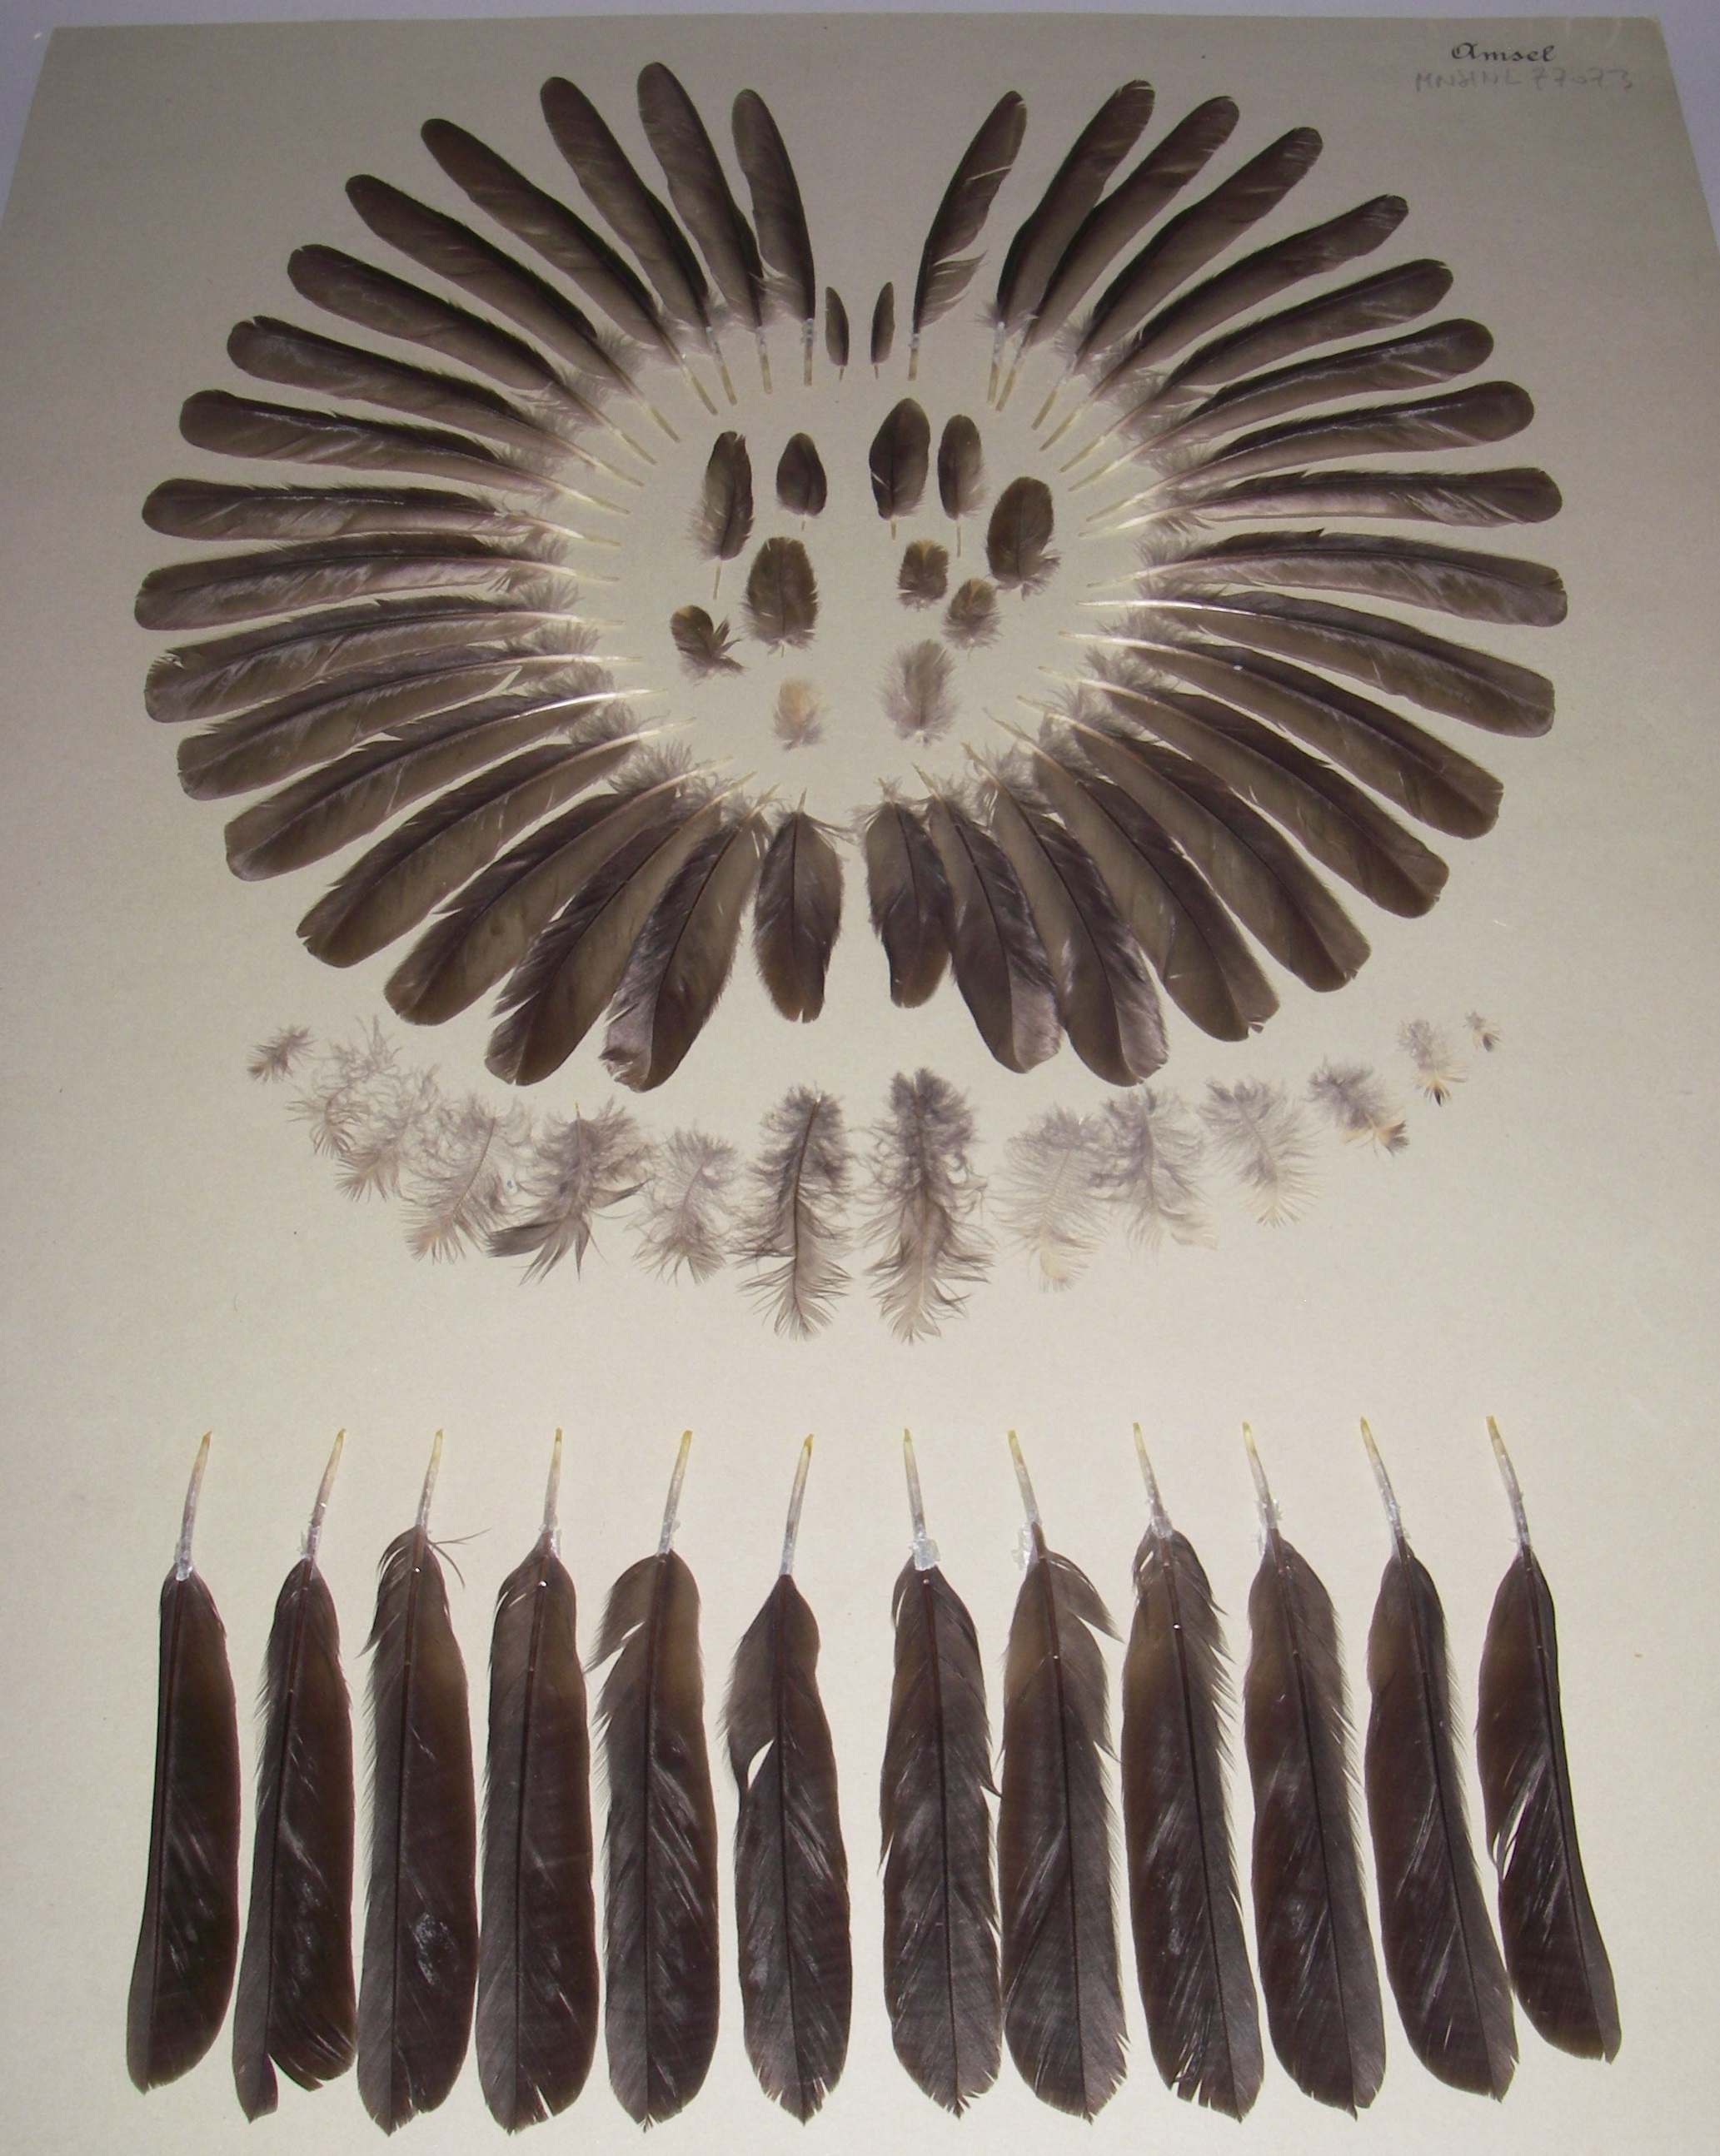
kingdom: Animalia
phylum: Chordata
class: Aves
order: Passeriformes
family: Turdidae
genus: Turdus
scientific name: Turdus merula
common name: Common blackbird
